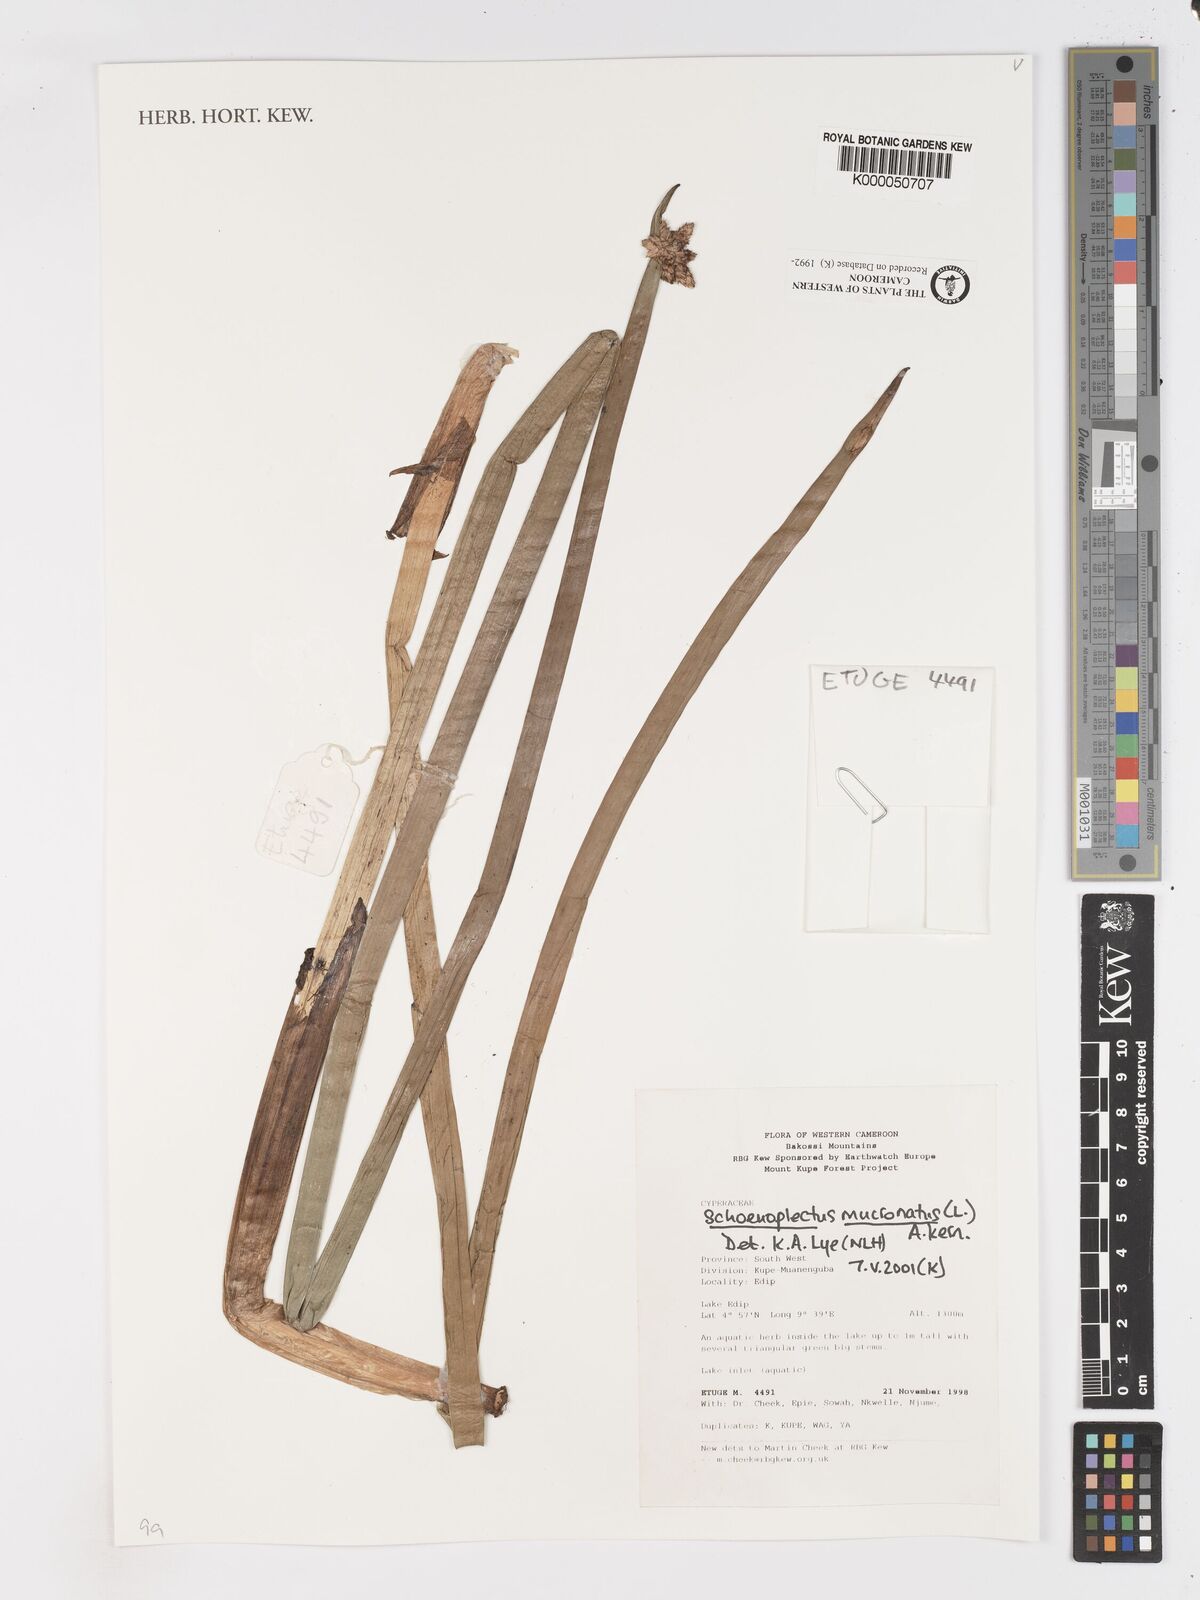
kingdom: Plantae
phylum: Tracheophyta
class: Liliopsida
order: Poales
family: Cyperaceae
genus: Schoenoplectus
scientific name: Schoenoplectus
